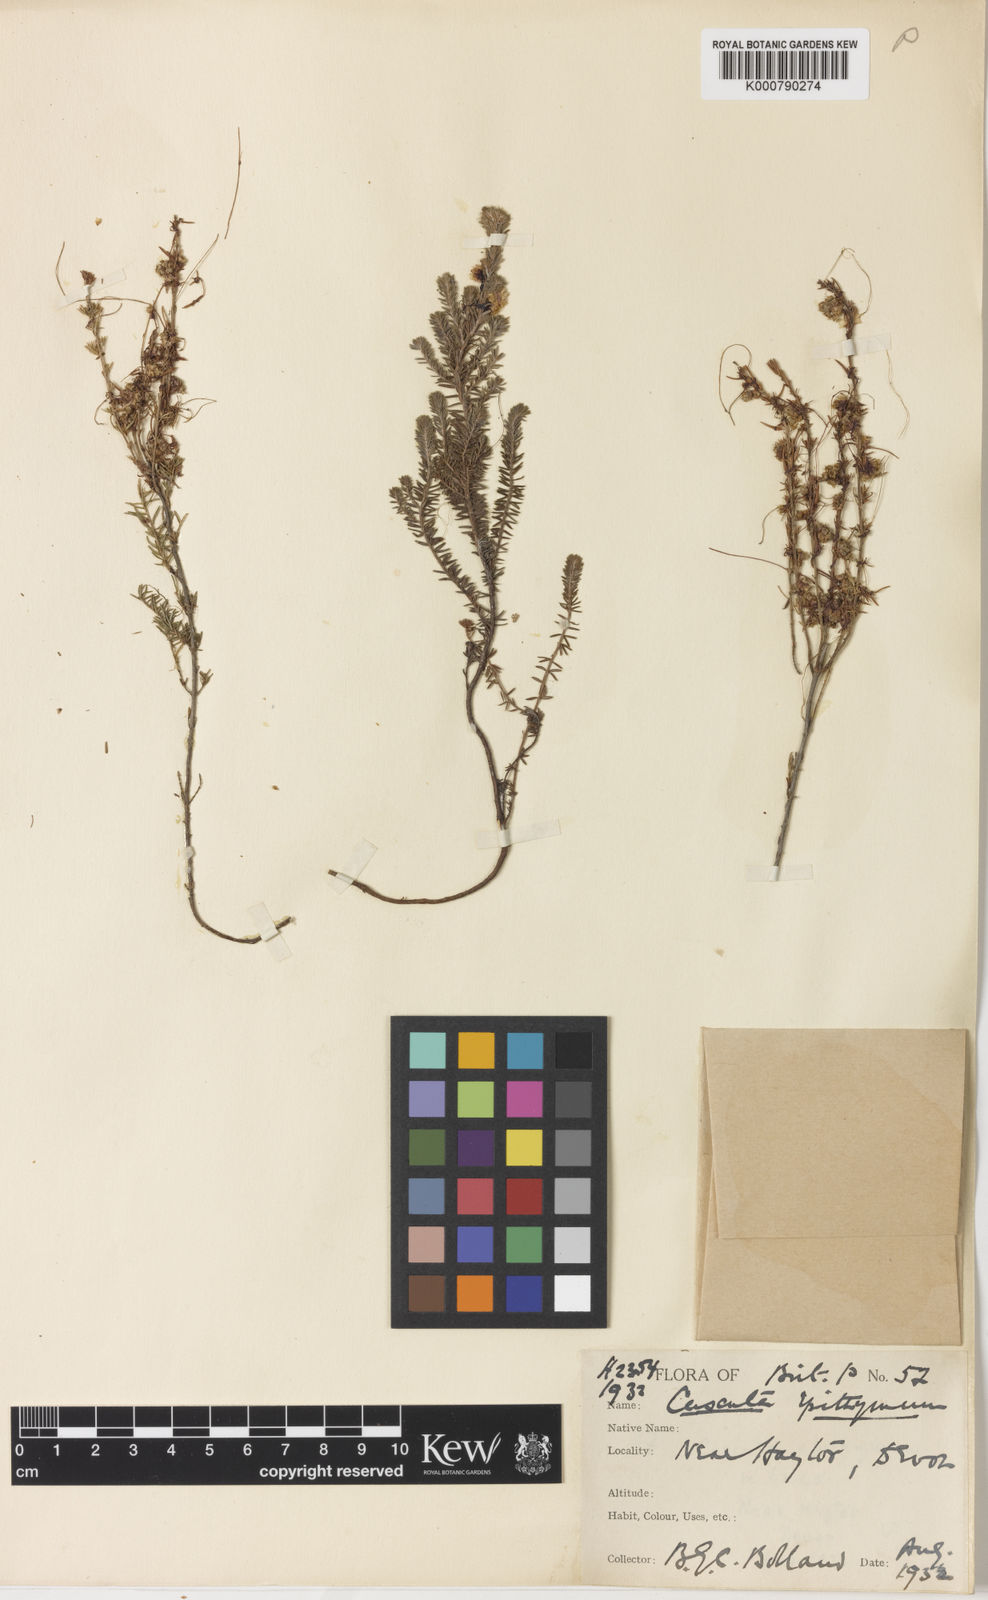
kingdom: Plantae
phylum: Tracheophyta
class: Magnoliopsida
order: Solanales
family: Convolvulaceae
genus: Cuscuta
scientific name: Cuscuta epithymum
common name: Clover dodder
